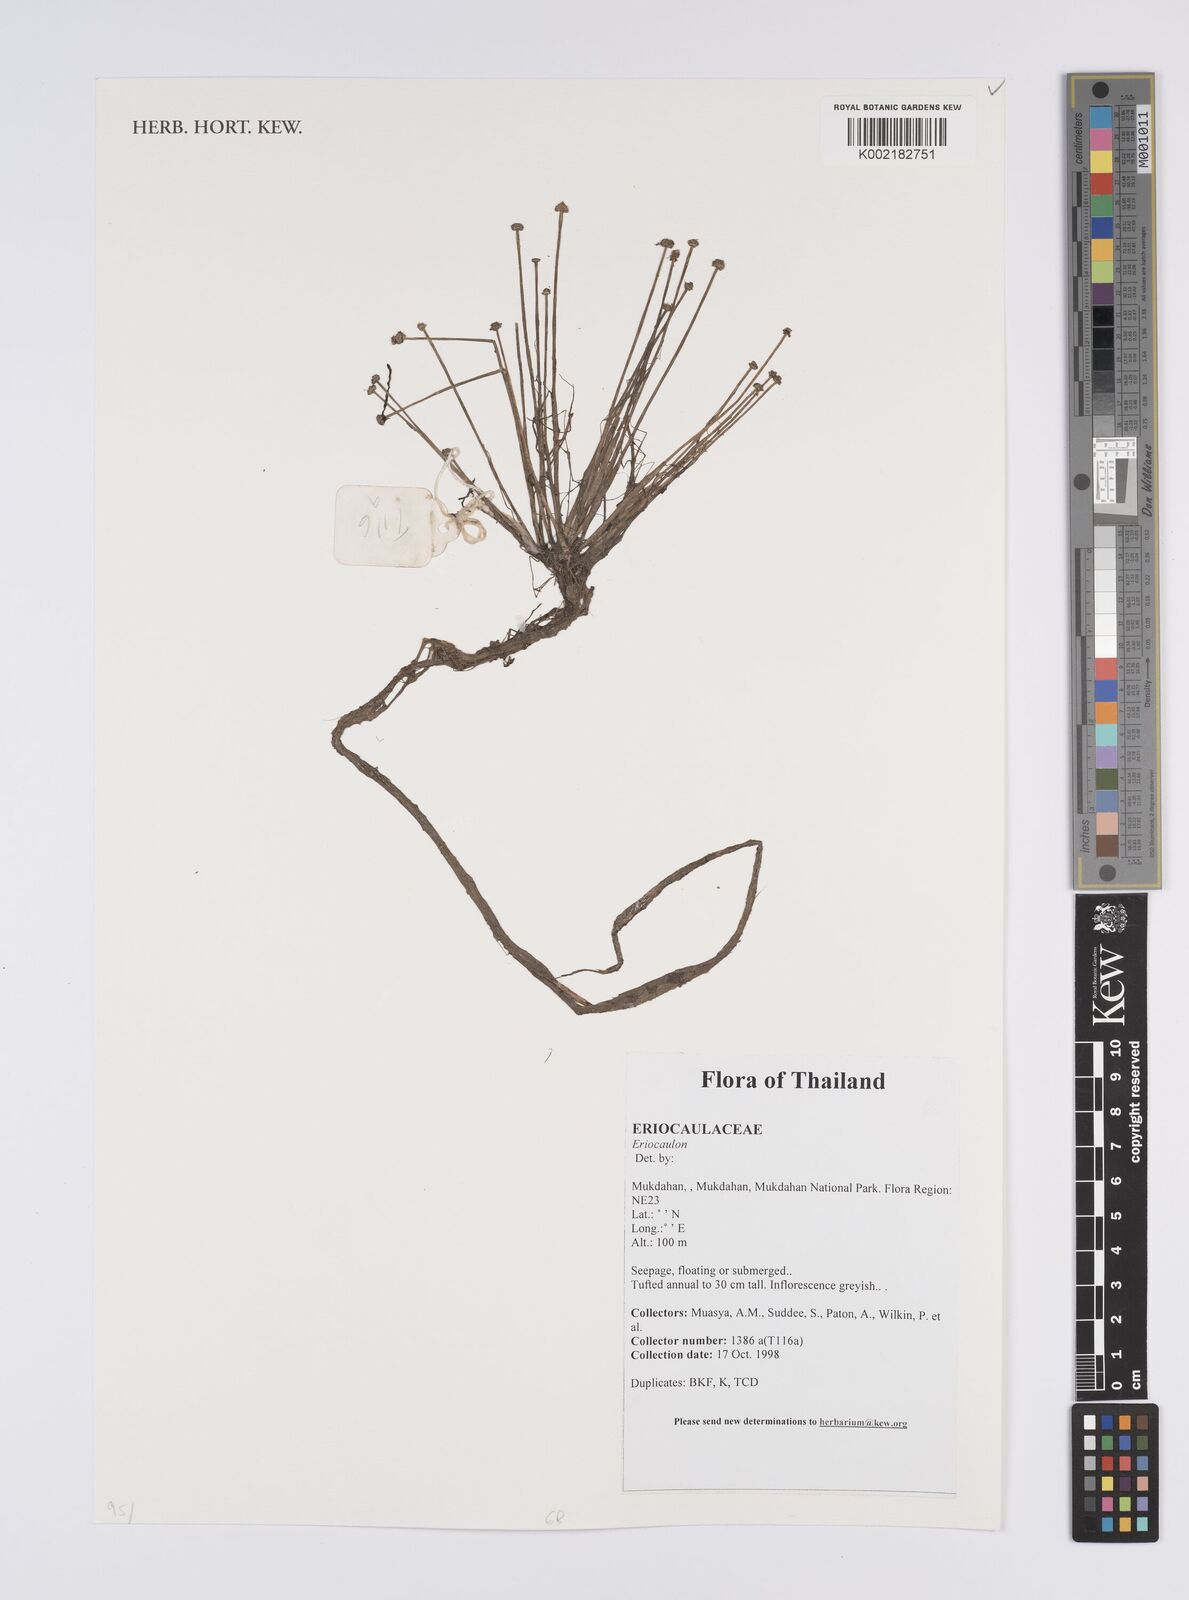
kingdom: Plantae
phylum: Tracheophyta
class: Liliopsida
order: Poales
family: Eriocaulaceae
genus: Eriocaulon
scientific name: Eriocaulon
